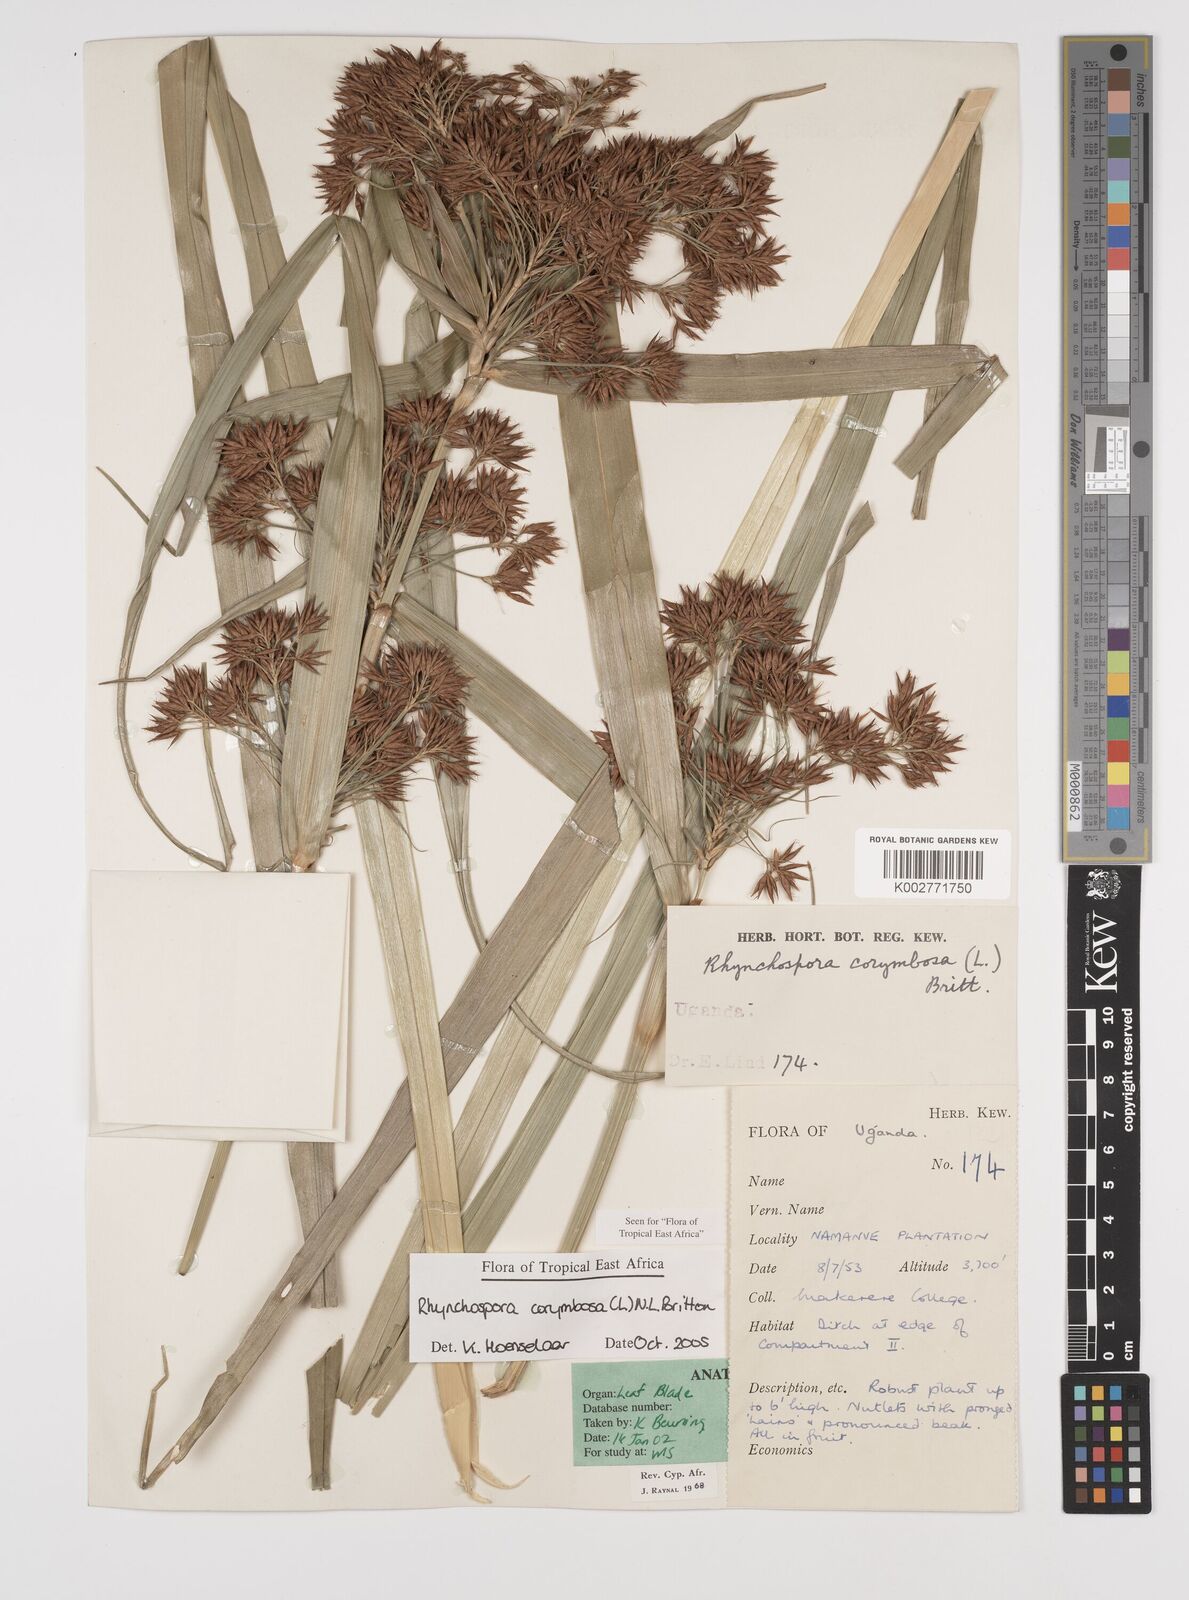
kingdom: Plantae
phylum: Tracheophyta
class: Liliopsida
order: Poales
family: Cyperaceae
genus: Rhynchospora
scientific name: Rhynchospora corymbosa
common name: Golden beak sedge
